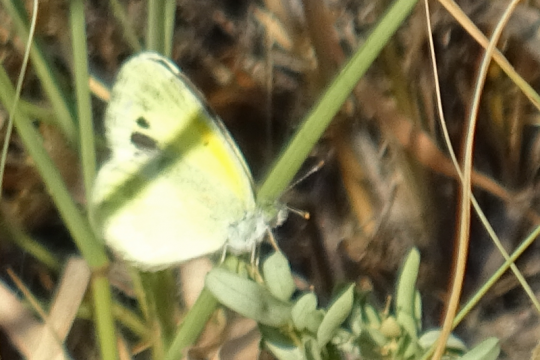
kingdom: Animalia
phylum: Arthropoda
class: Insecta
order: Lepidoptera
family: Pieridae
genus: Nathalis
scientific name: Nathalis iole
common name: Dainty Sulphur
